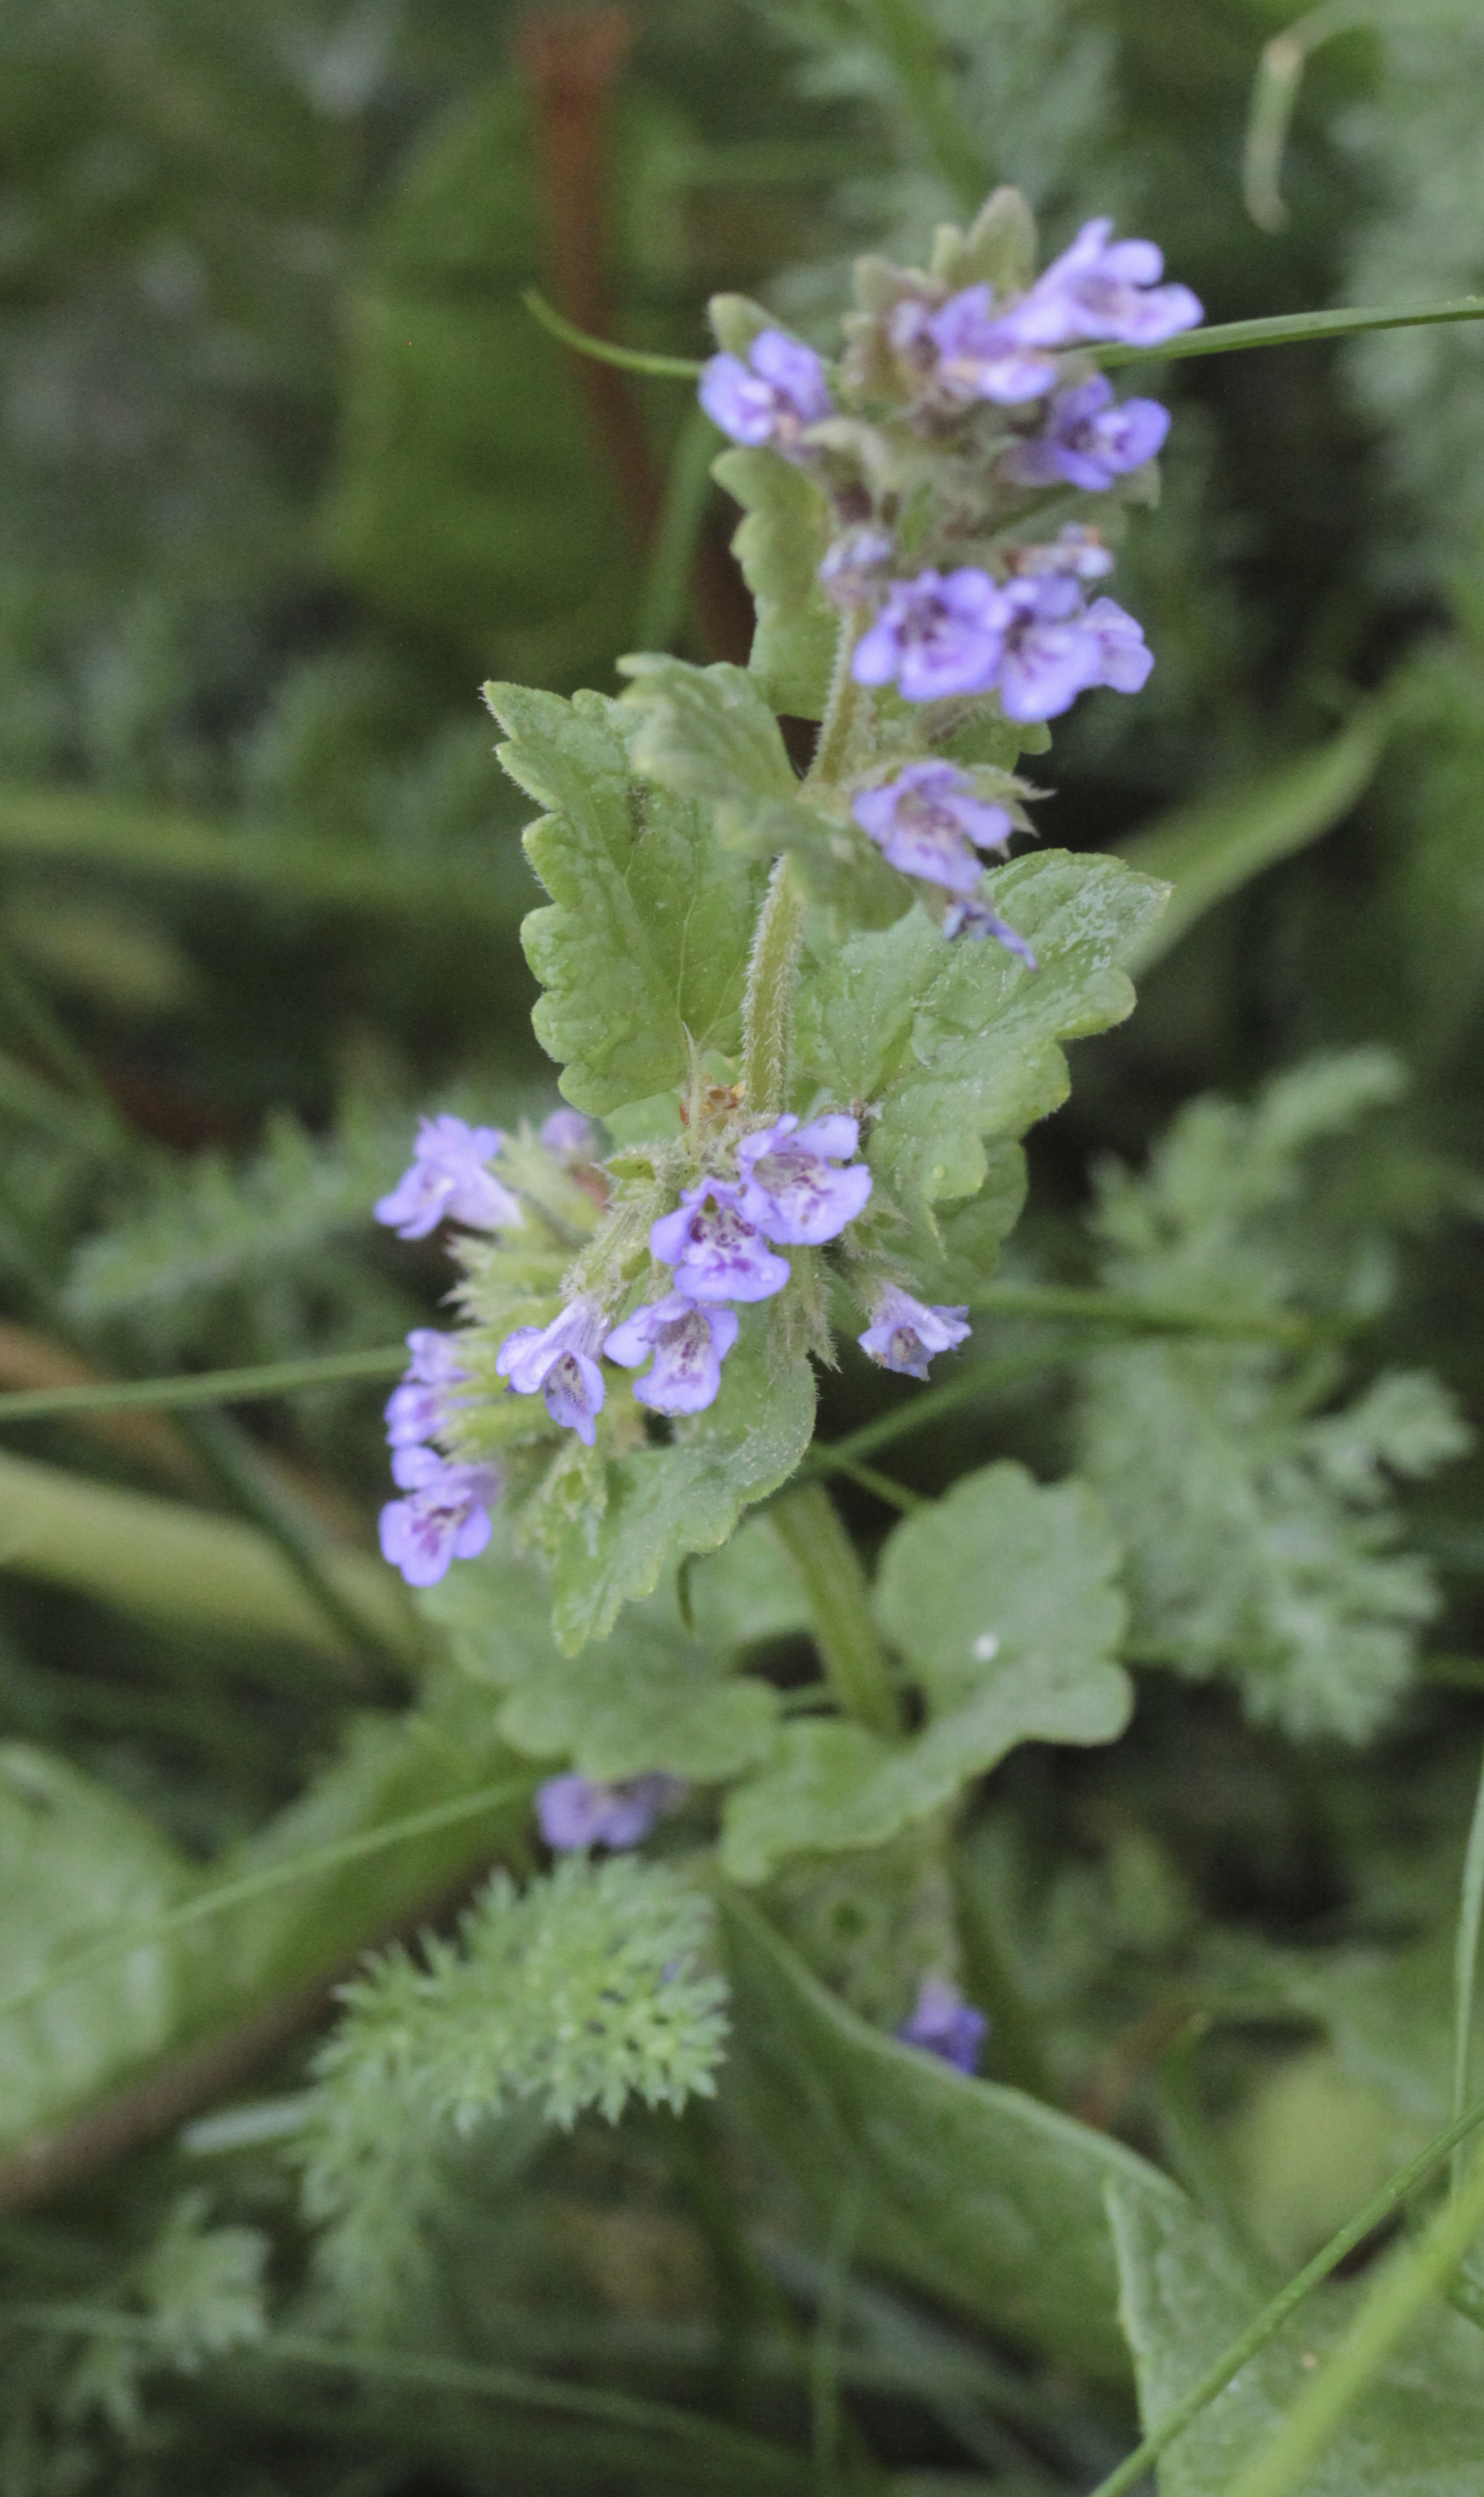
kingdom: Plantae
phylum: Tracheophyta
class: Magnoliopsida
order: Lamiales
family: Lamiaceae
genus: Glechoma
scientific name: Glechoma hederacea
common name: Ground ivy
